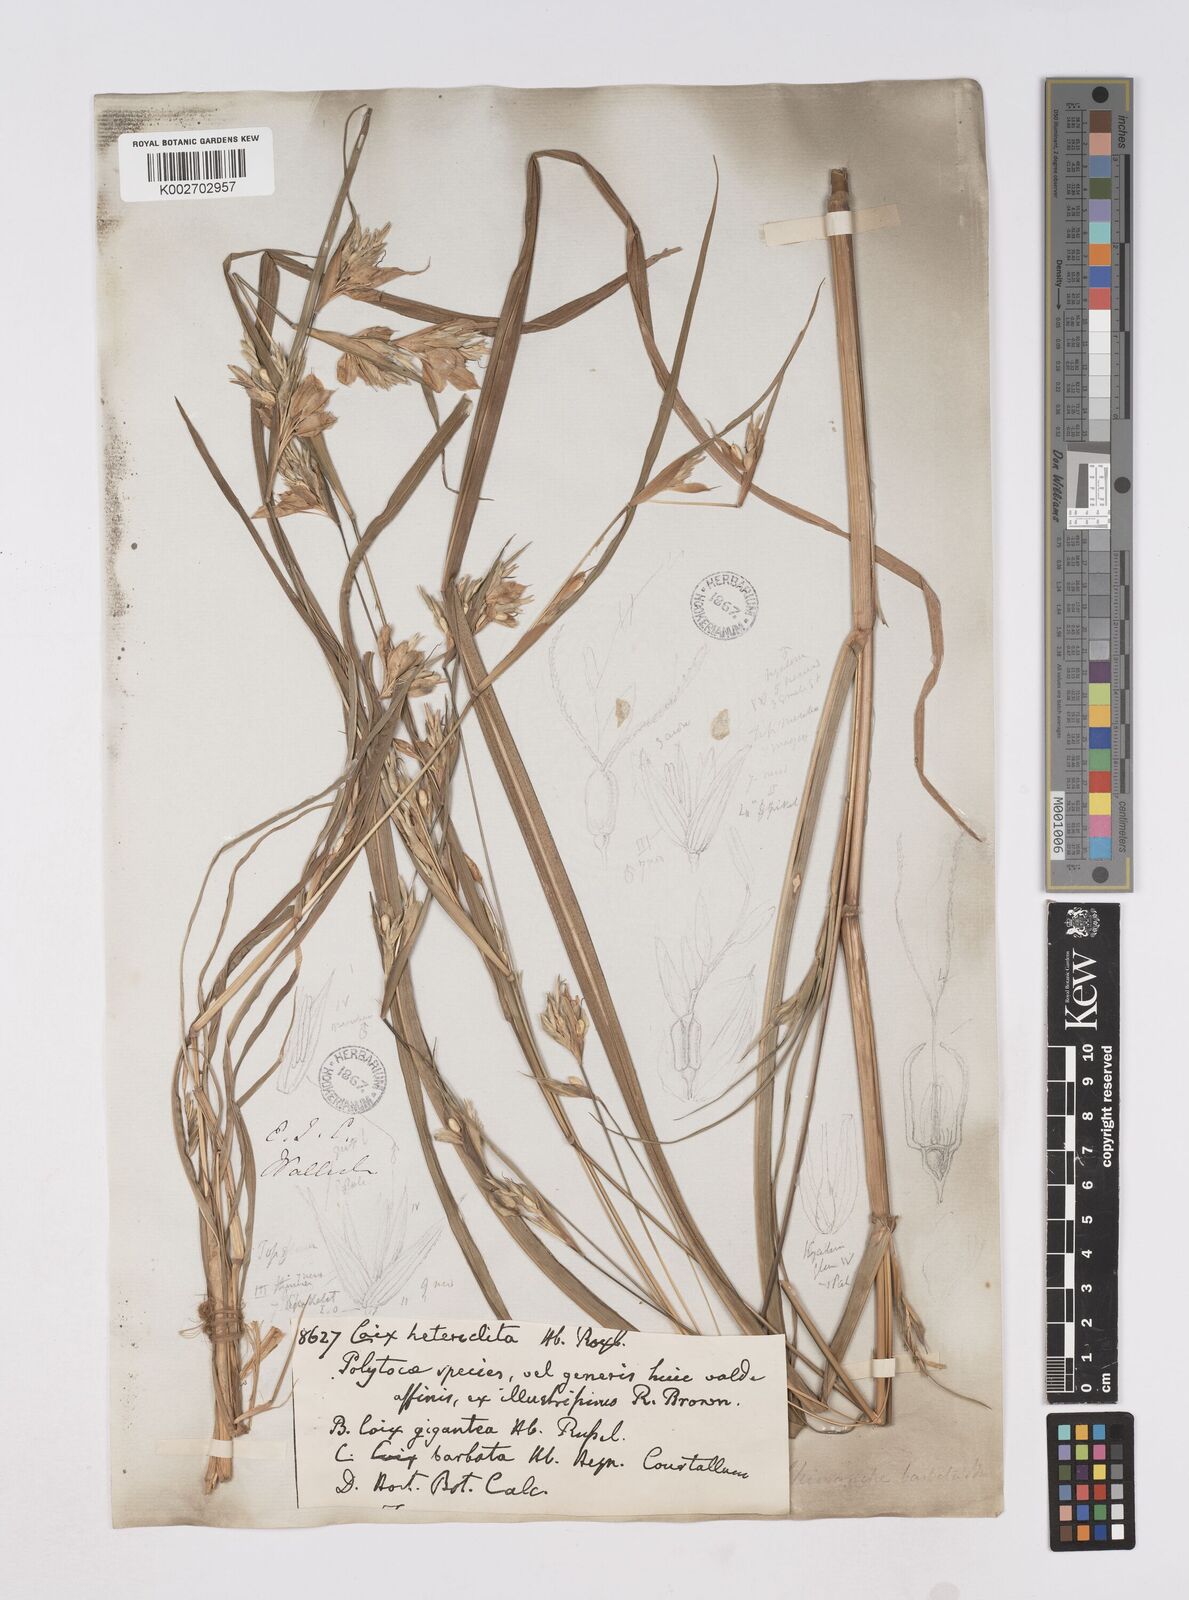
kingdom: Plantae
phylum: Tracheophyta
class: Liliopsida
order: Poales
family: Poaceae
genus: Polytoca
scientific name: Polytoca gigantea
